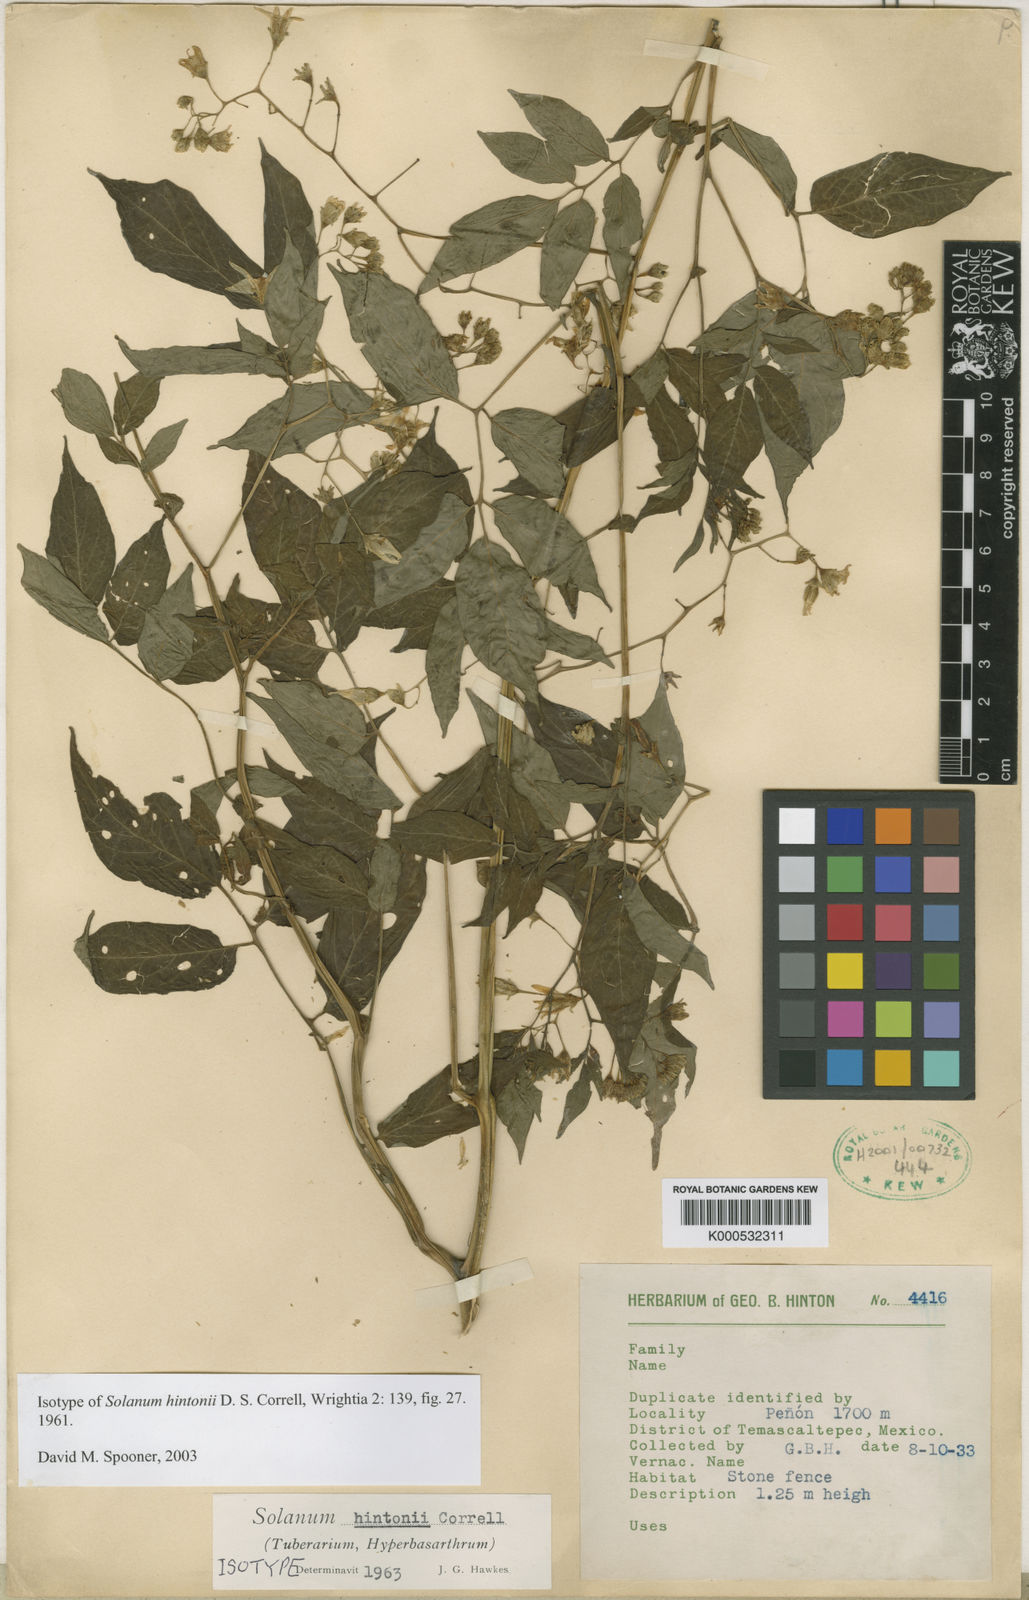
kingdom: Plantae
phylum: Tracheophyta
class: Magnoliopsida
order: Solanales
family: Solanaceae
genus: Solanum
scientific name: Solanum hjertingii
